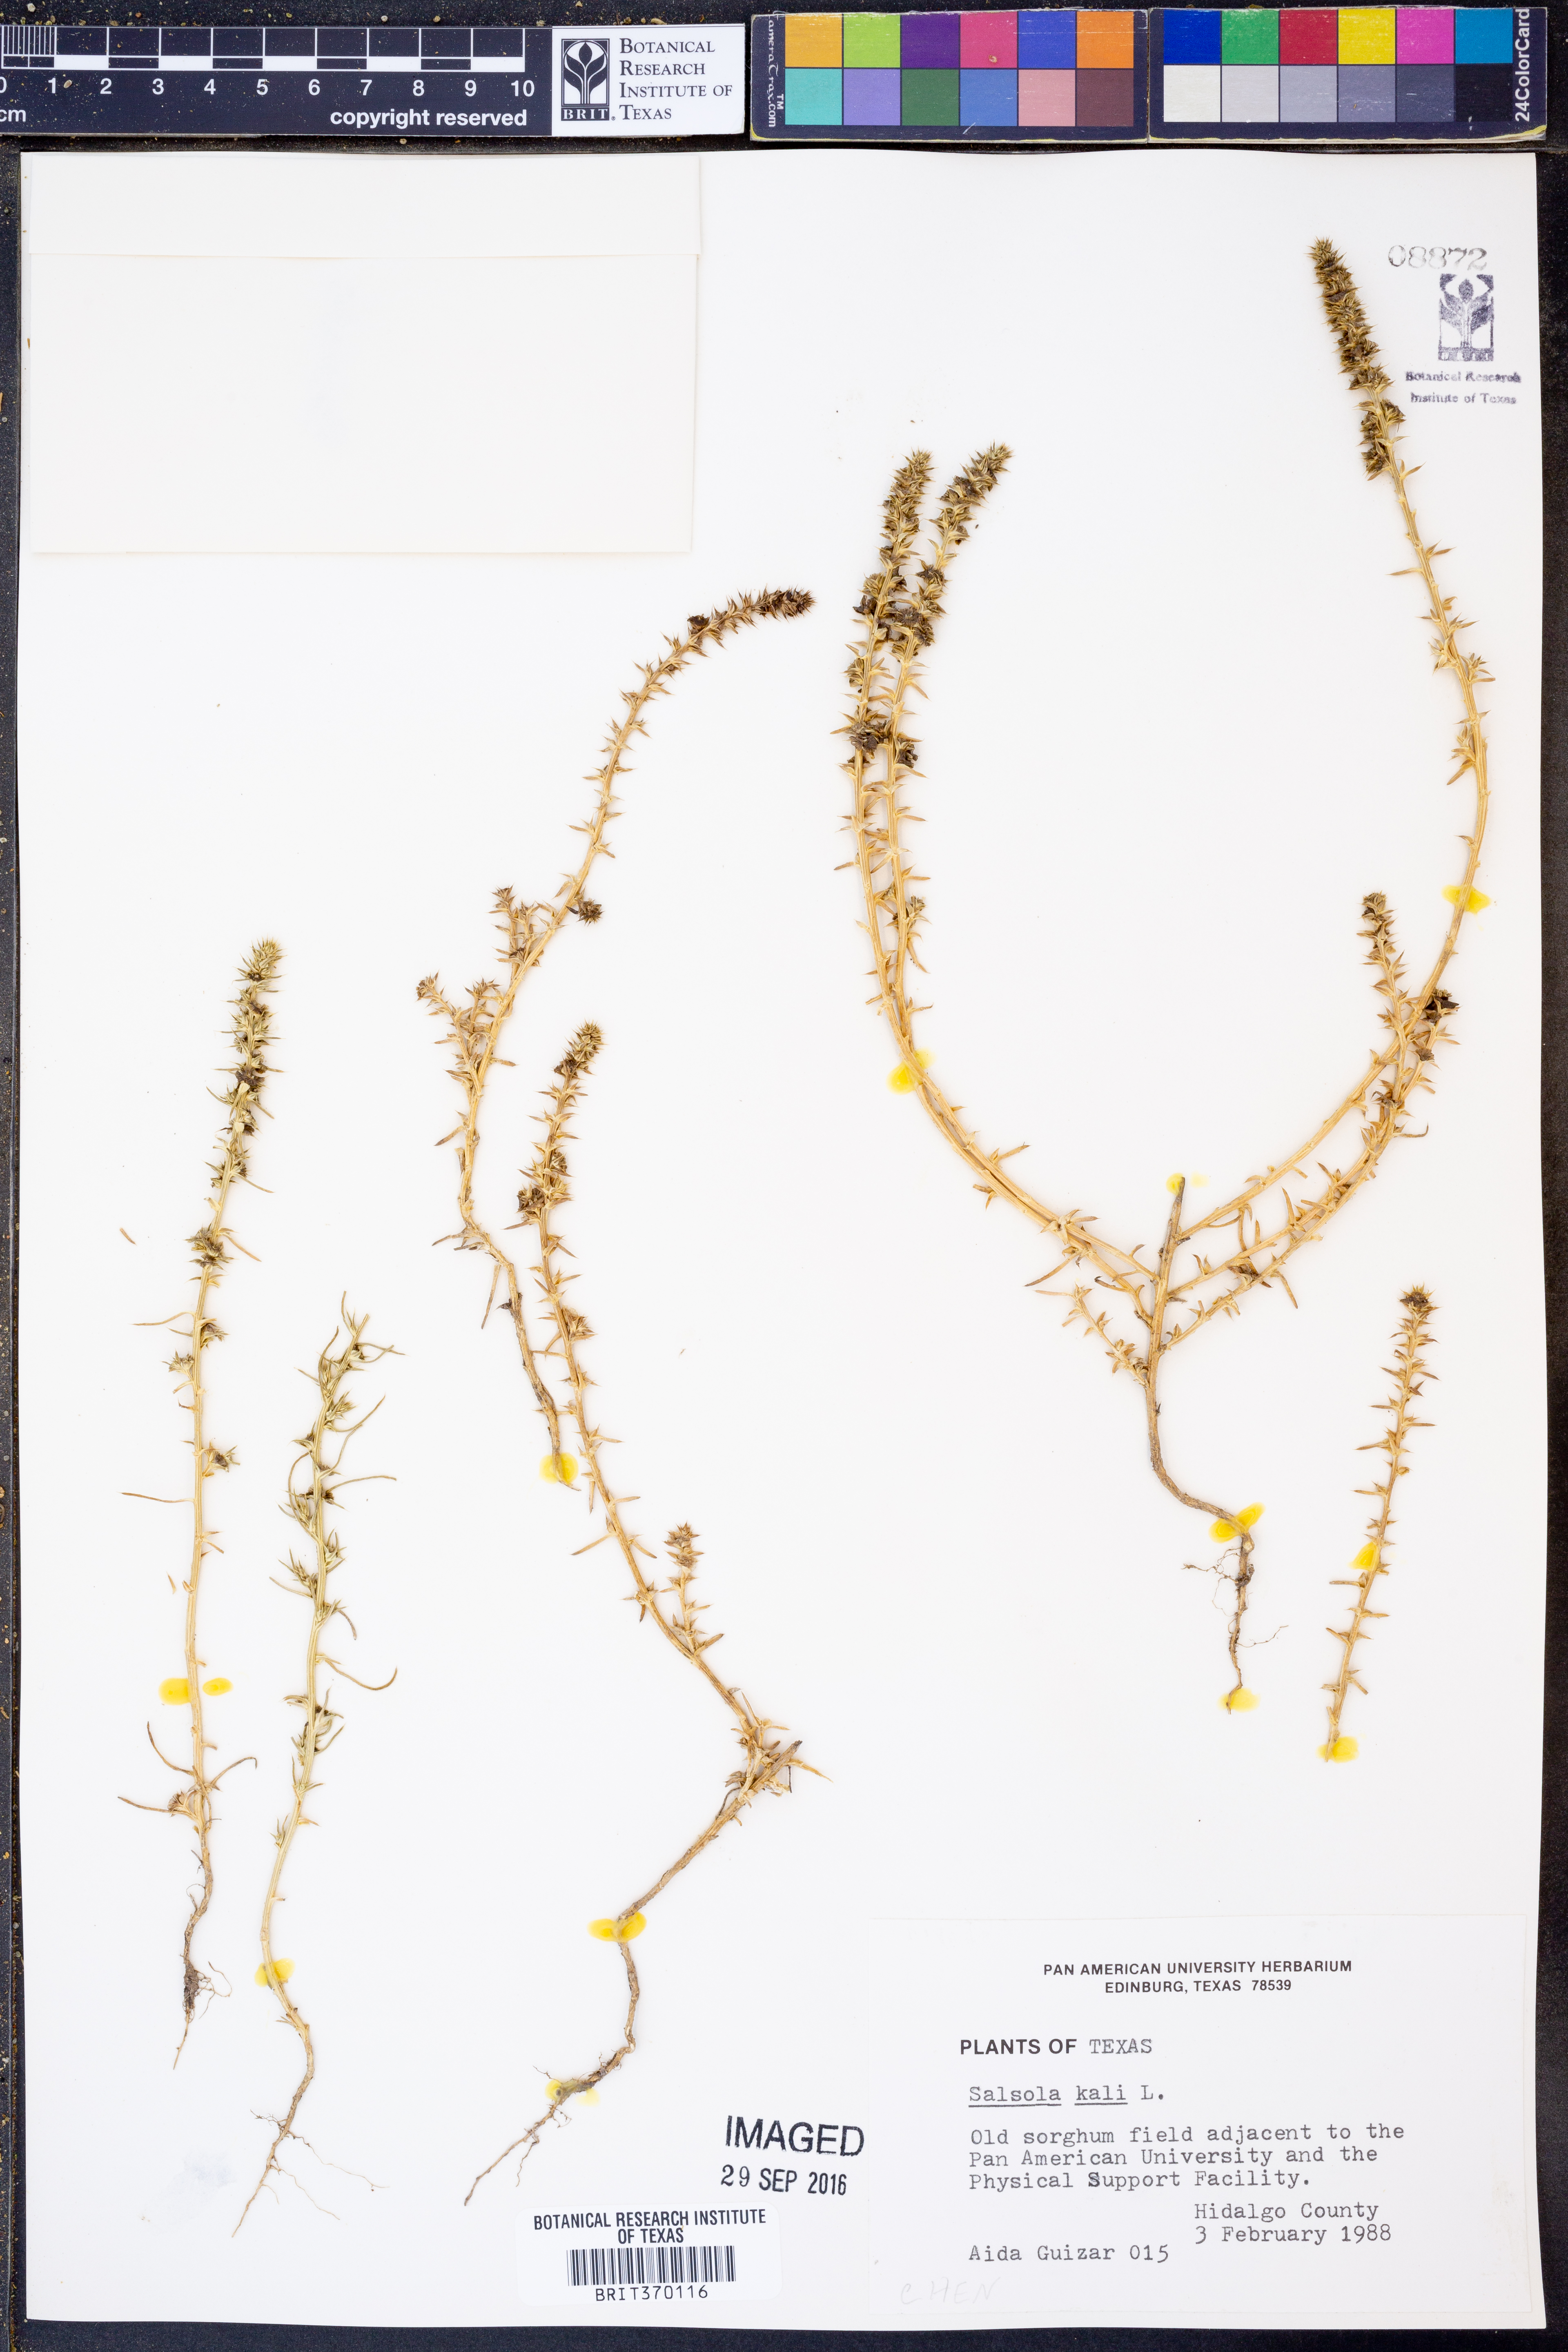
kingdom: Plantae
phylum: Tracheophyta
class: Magnoliopsida
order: Caryophyllales
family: Amaranthaceae
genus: Salsola
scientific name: Salsola kali
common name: Saltwort
